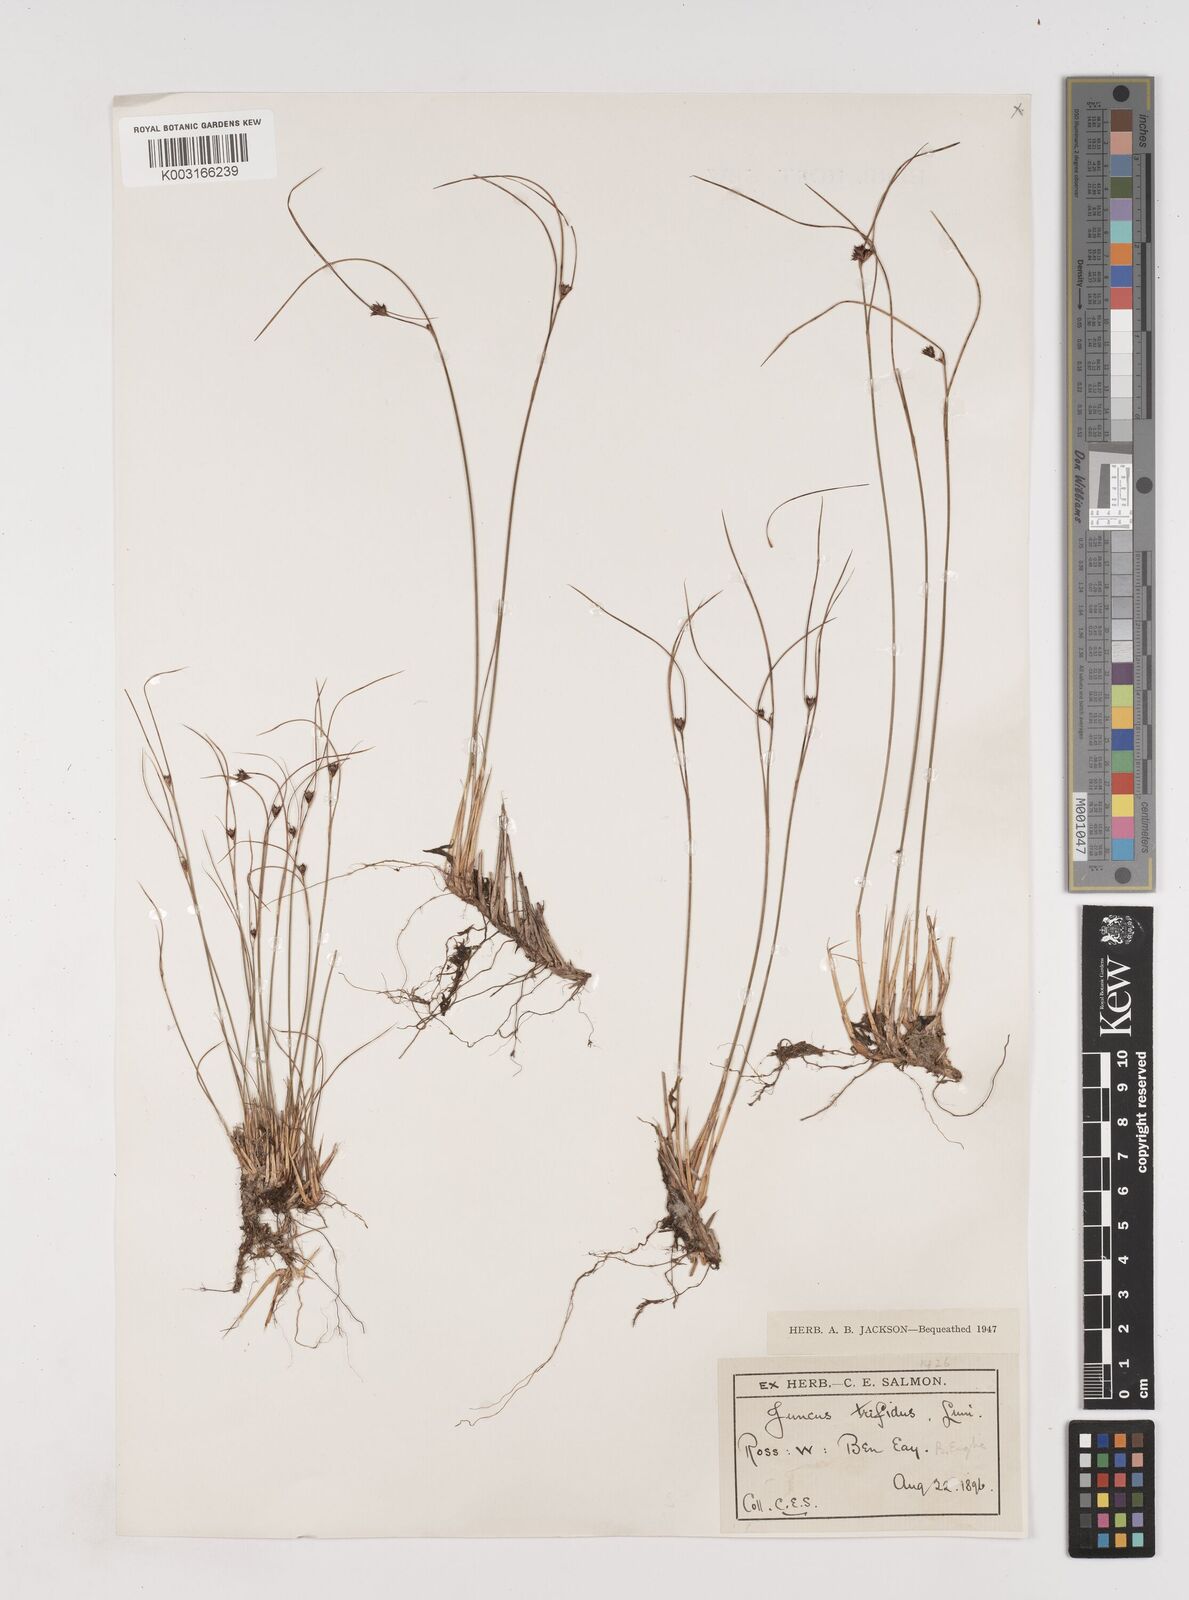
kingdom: Plantae
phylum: Tracheophyta
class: Liliopsida
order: Poales
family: Juncaceae
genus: Oreojuncus
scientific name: Oreojuncus trifidus
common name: Highland rush
